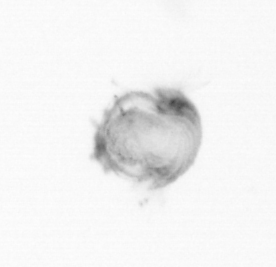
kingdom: Animalia
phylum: Annelida
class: Polychaeta
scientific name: Polychaeta
